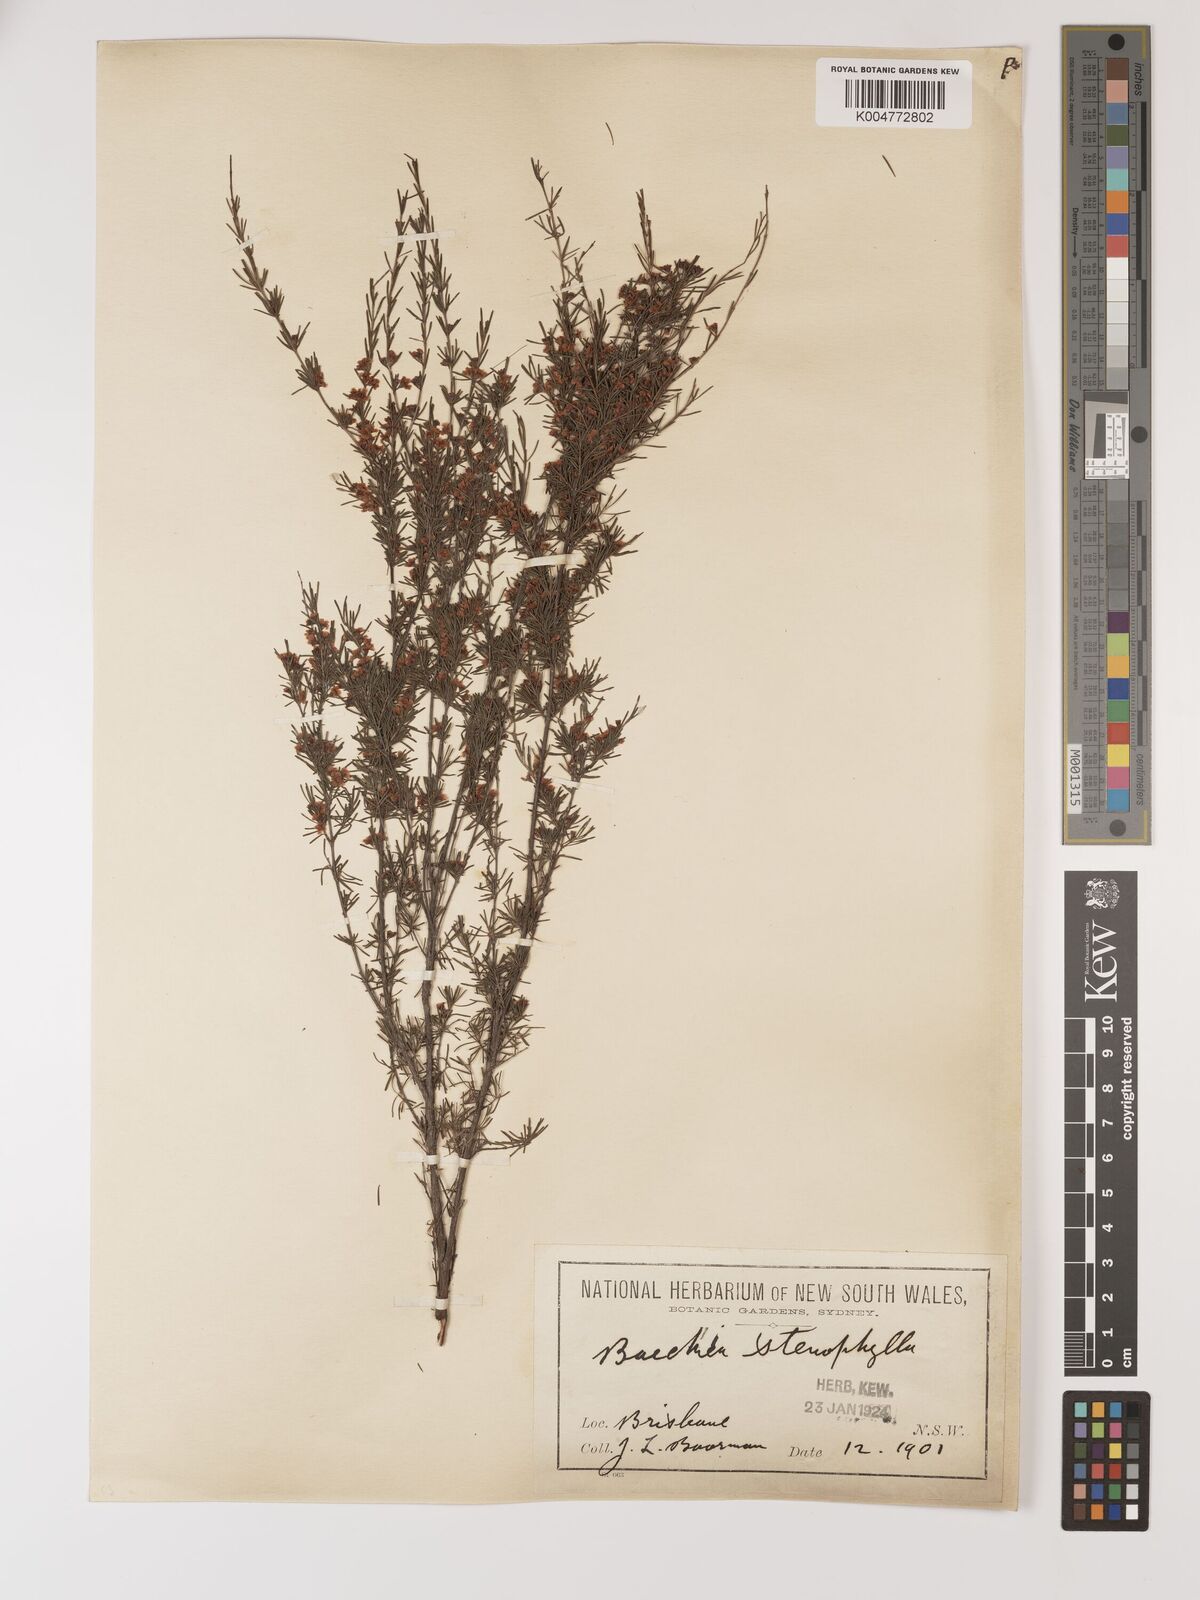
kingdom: Plantae
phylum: Tracheophyta
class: Magnoliopsida
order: Myrtales
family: Myrtaceae
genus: Baeckea
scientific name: Baeckea frutescens
